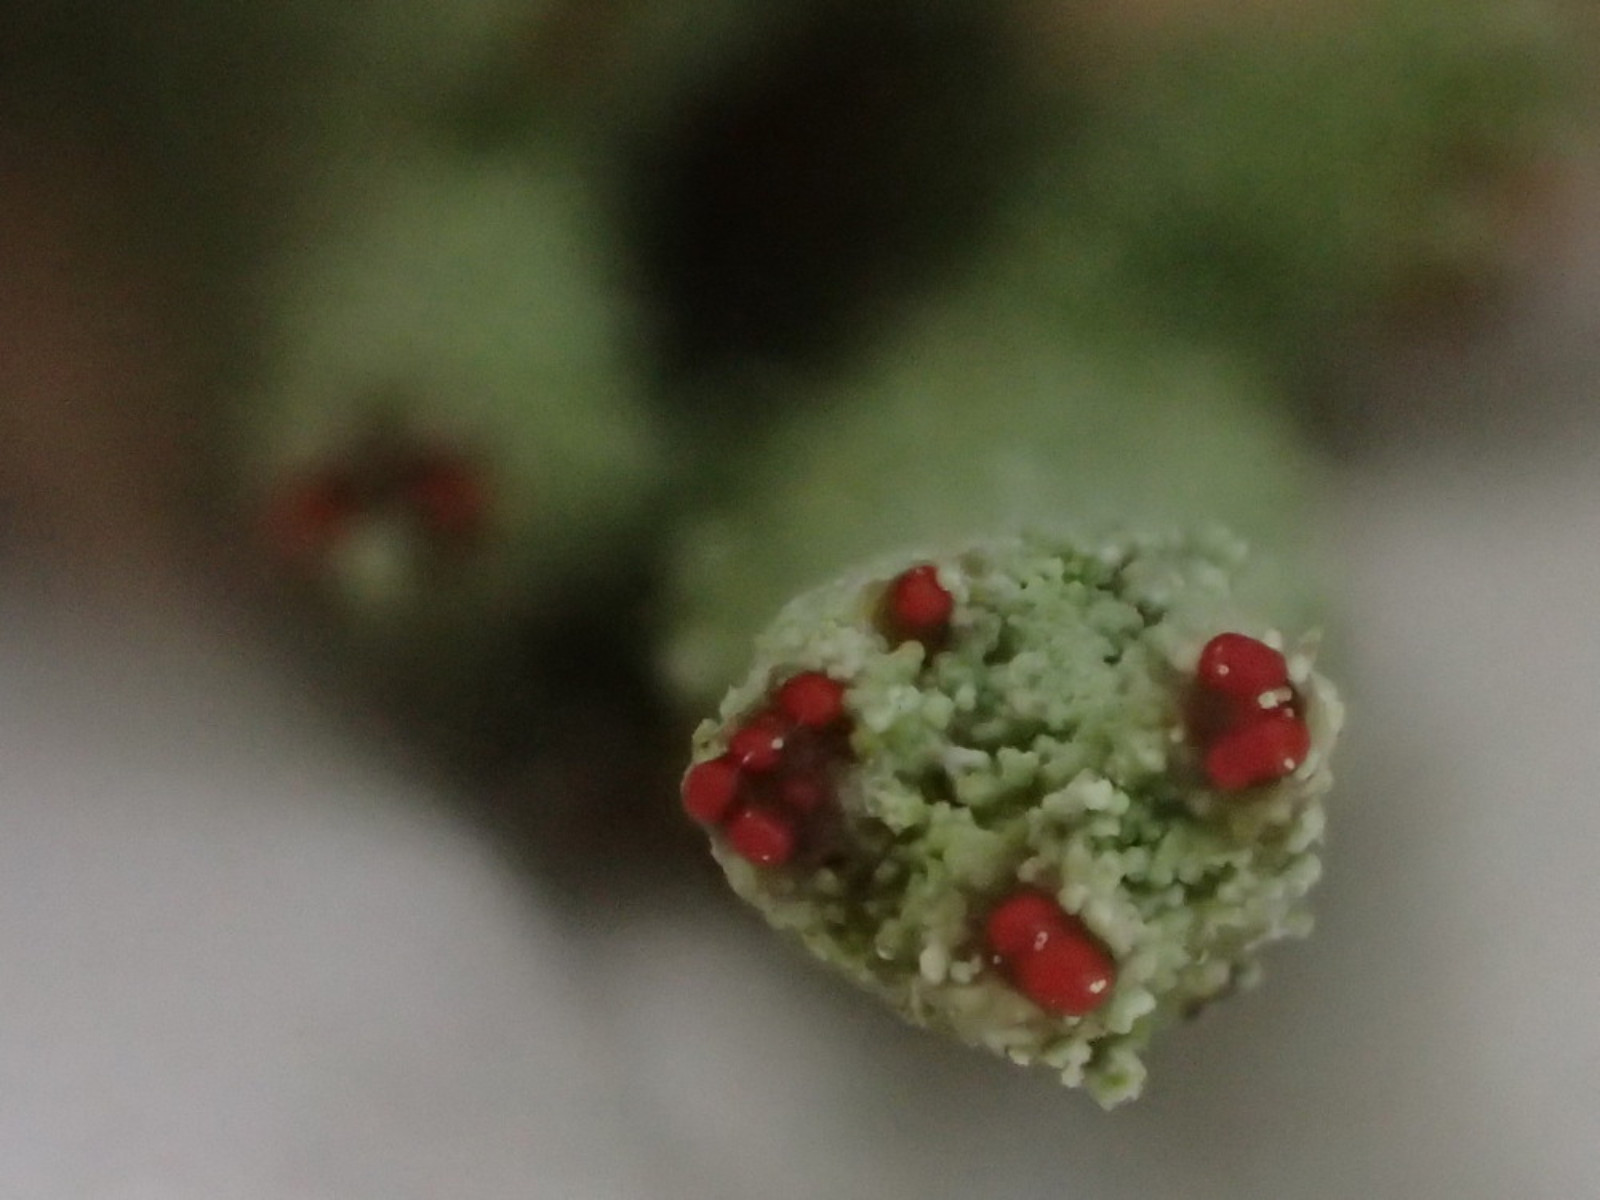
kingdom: Fungi
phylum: Ascomycota
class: Lecanoromycetes
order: Lecanorales
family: Cladoniaceae
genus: Cladonia
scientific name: Cladonia macilenta
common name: indsvunden bægerlav
